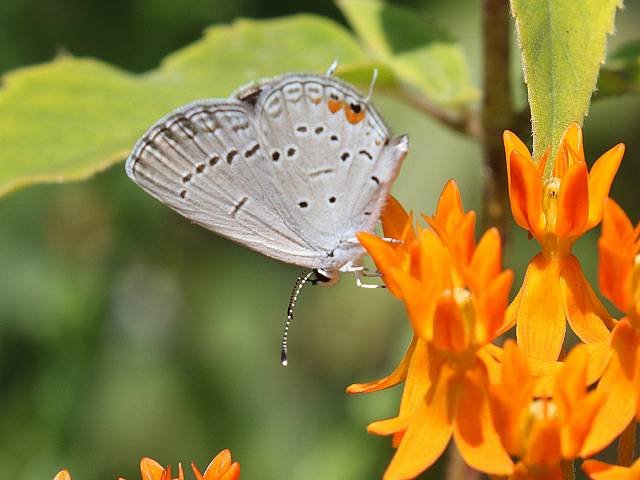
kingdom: Animalia
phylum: Arthropoda
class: Insecta
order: Lepidoptera
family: Lycaenidae
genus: Elkalyce
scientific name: Elkalyce comyntas
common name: Eastern Tailed-Blue
